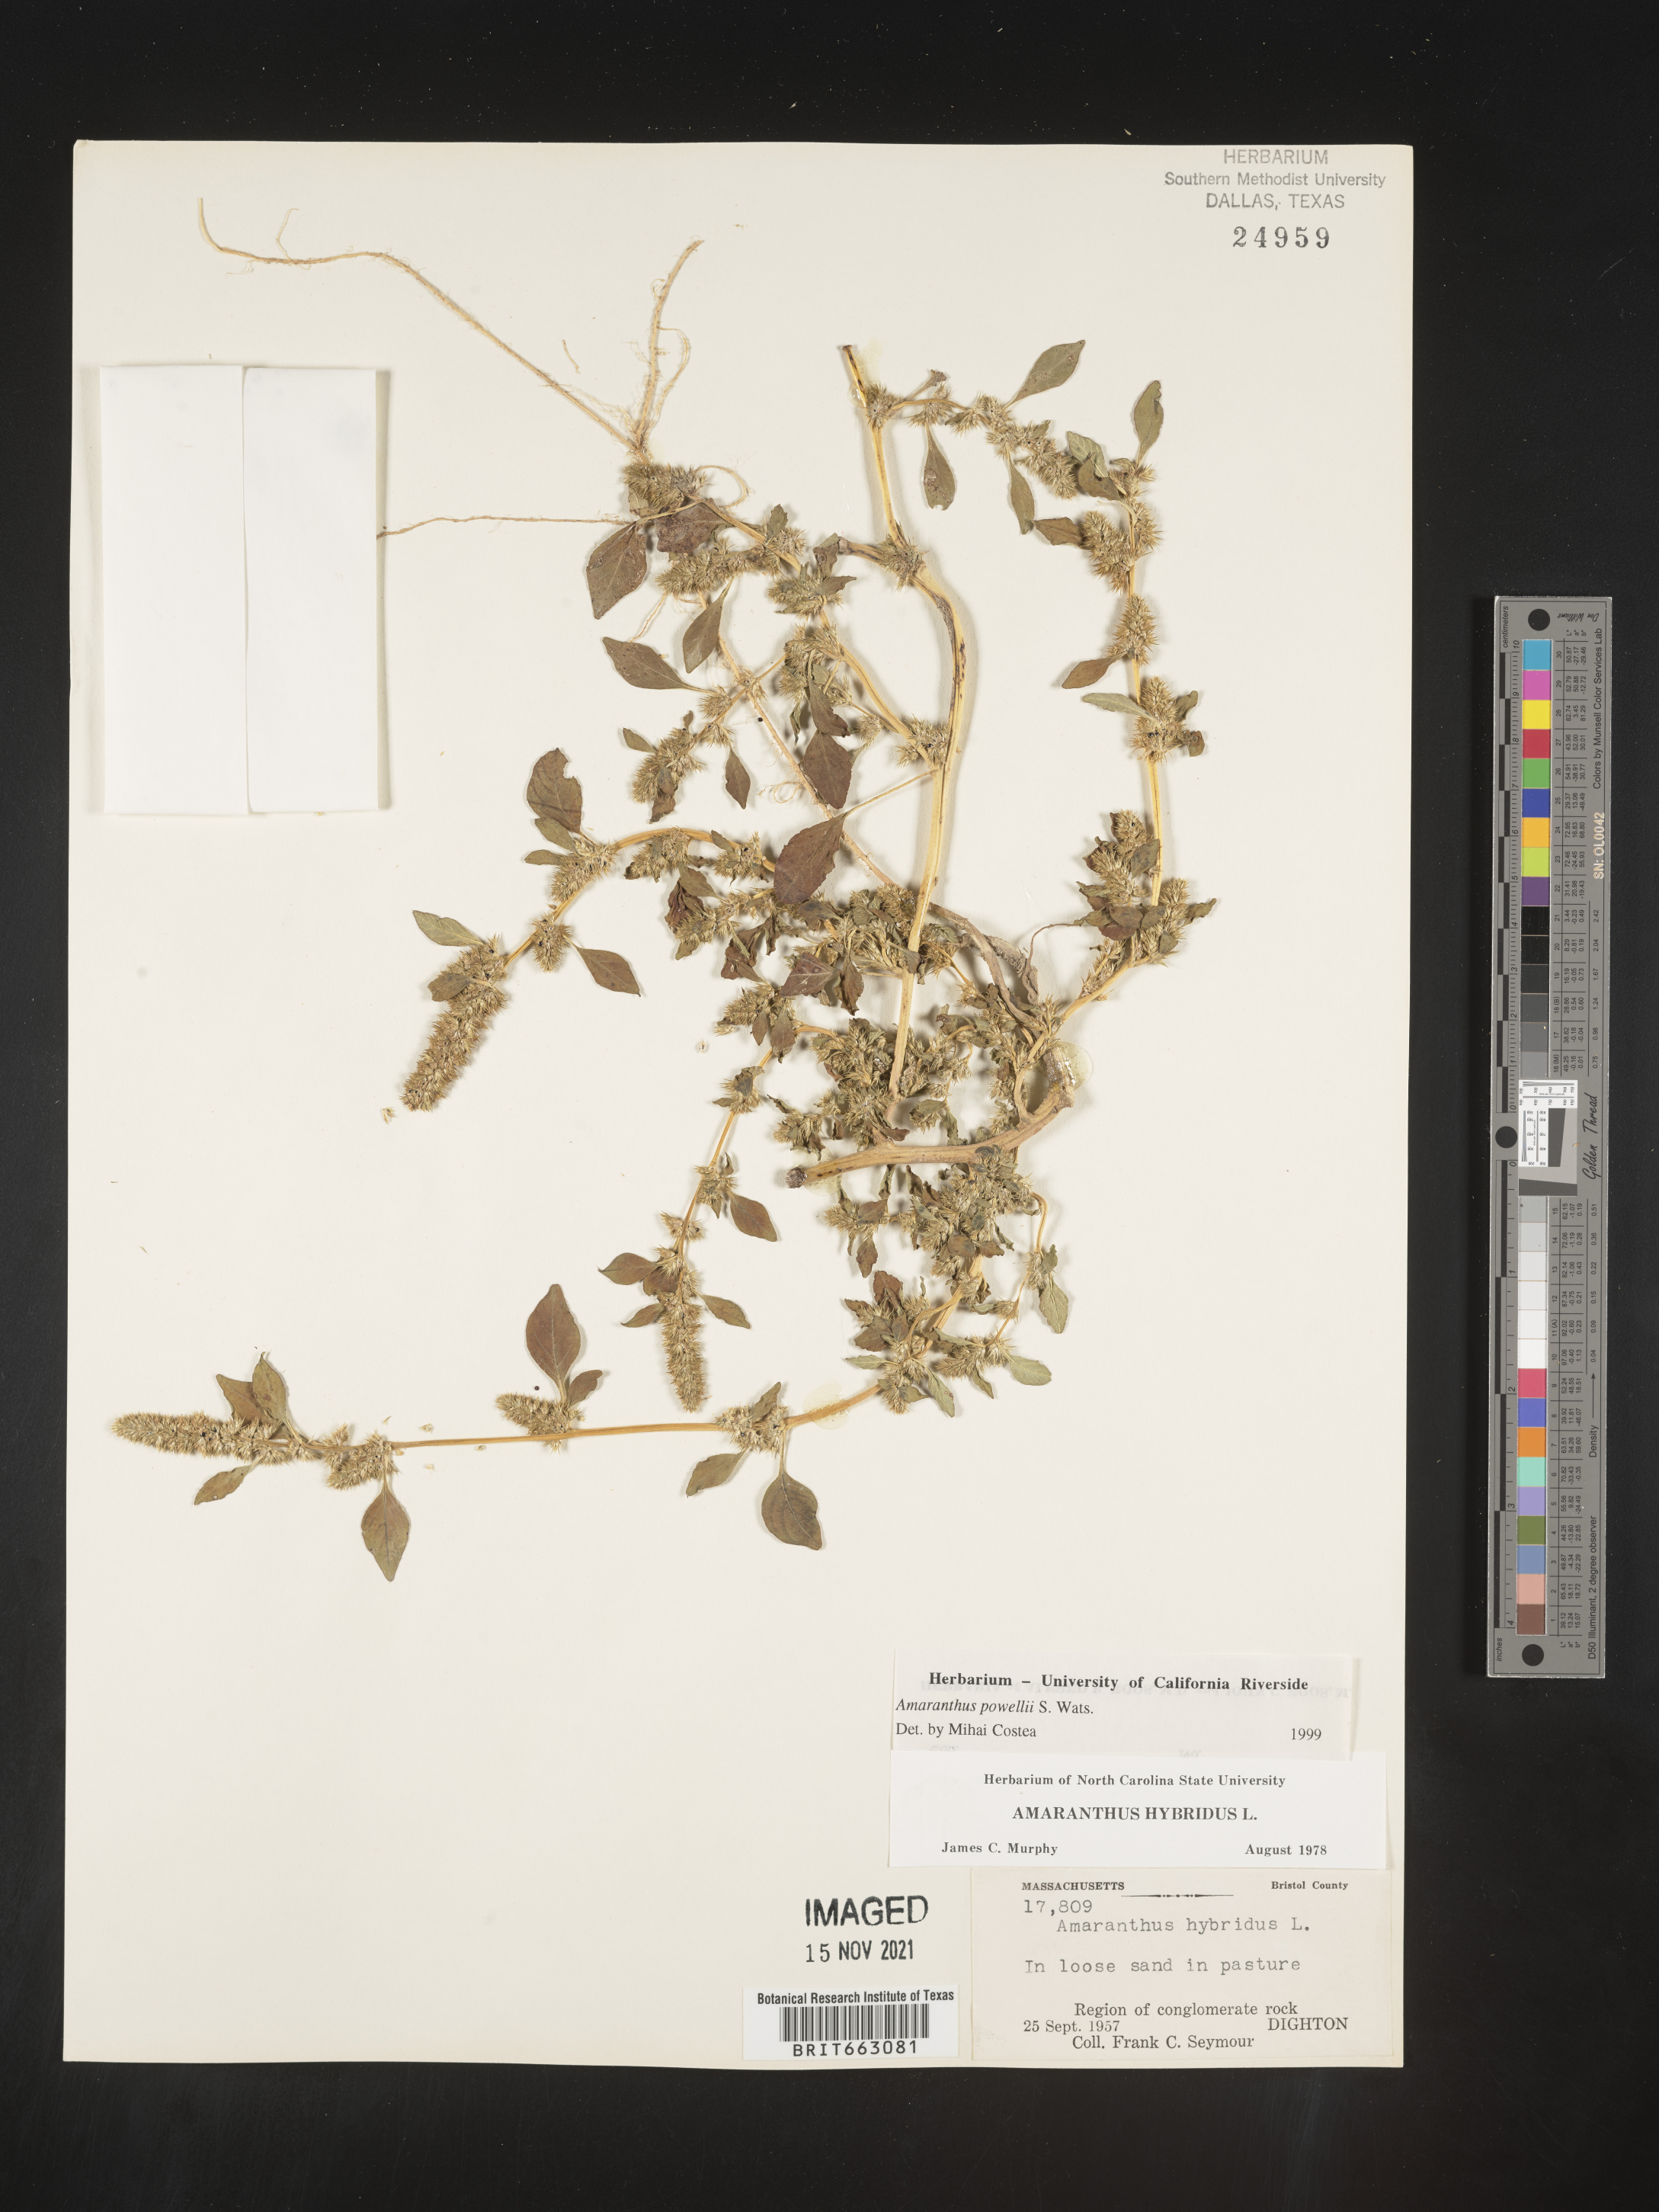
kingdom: Plantae
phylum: Tracheophyta
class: Magnoliopsida
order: Caryophyllales
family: Amaranthaceae
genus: Amaranthus
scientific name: Amaranthus powellii
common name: Powell's amaranth
